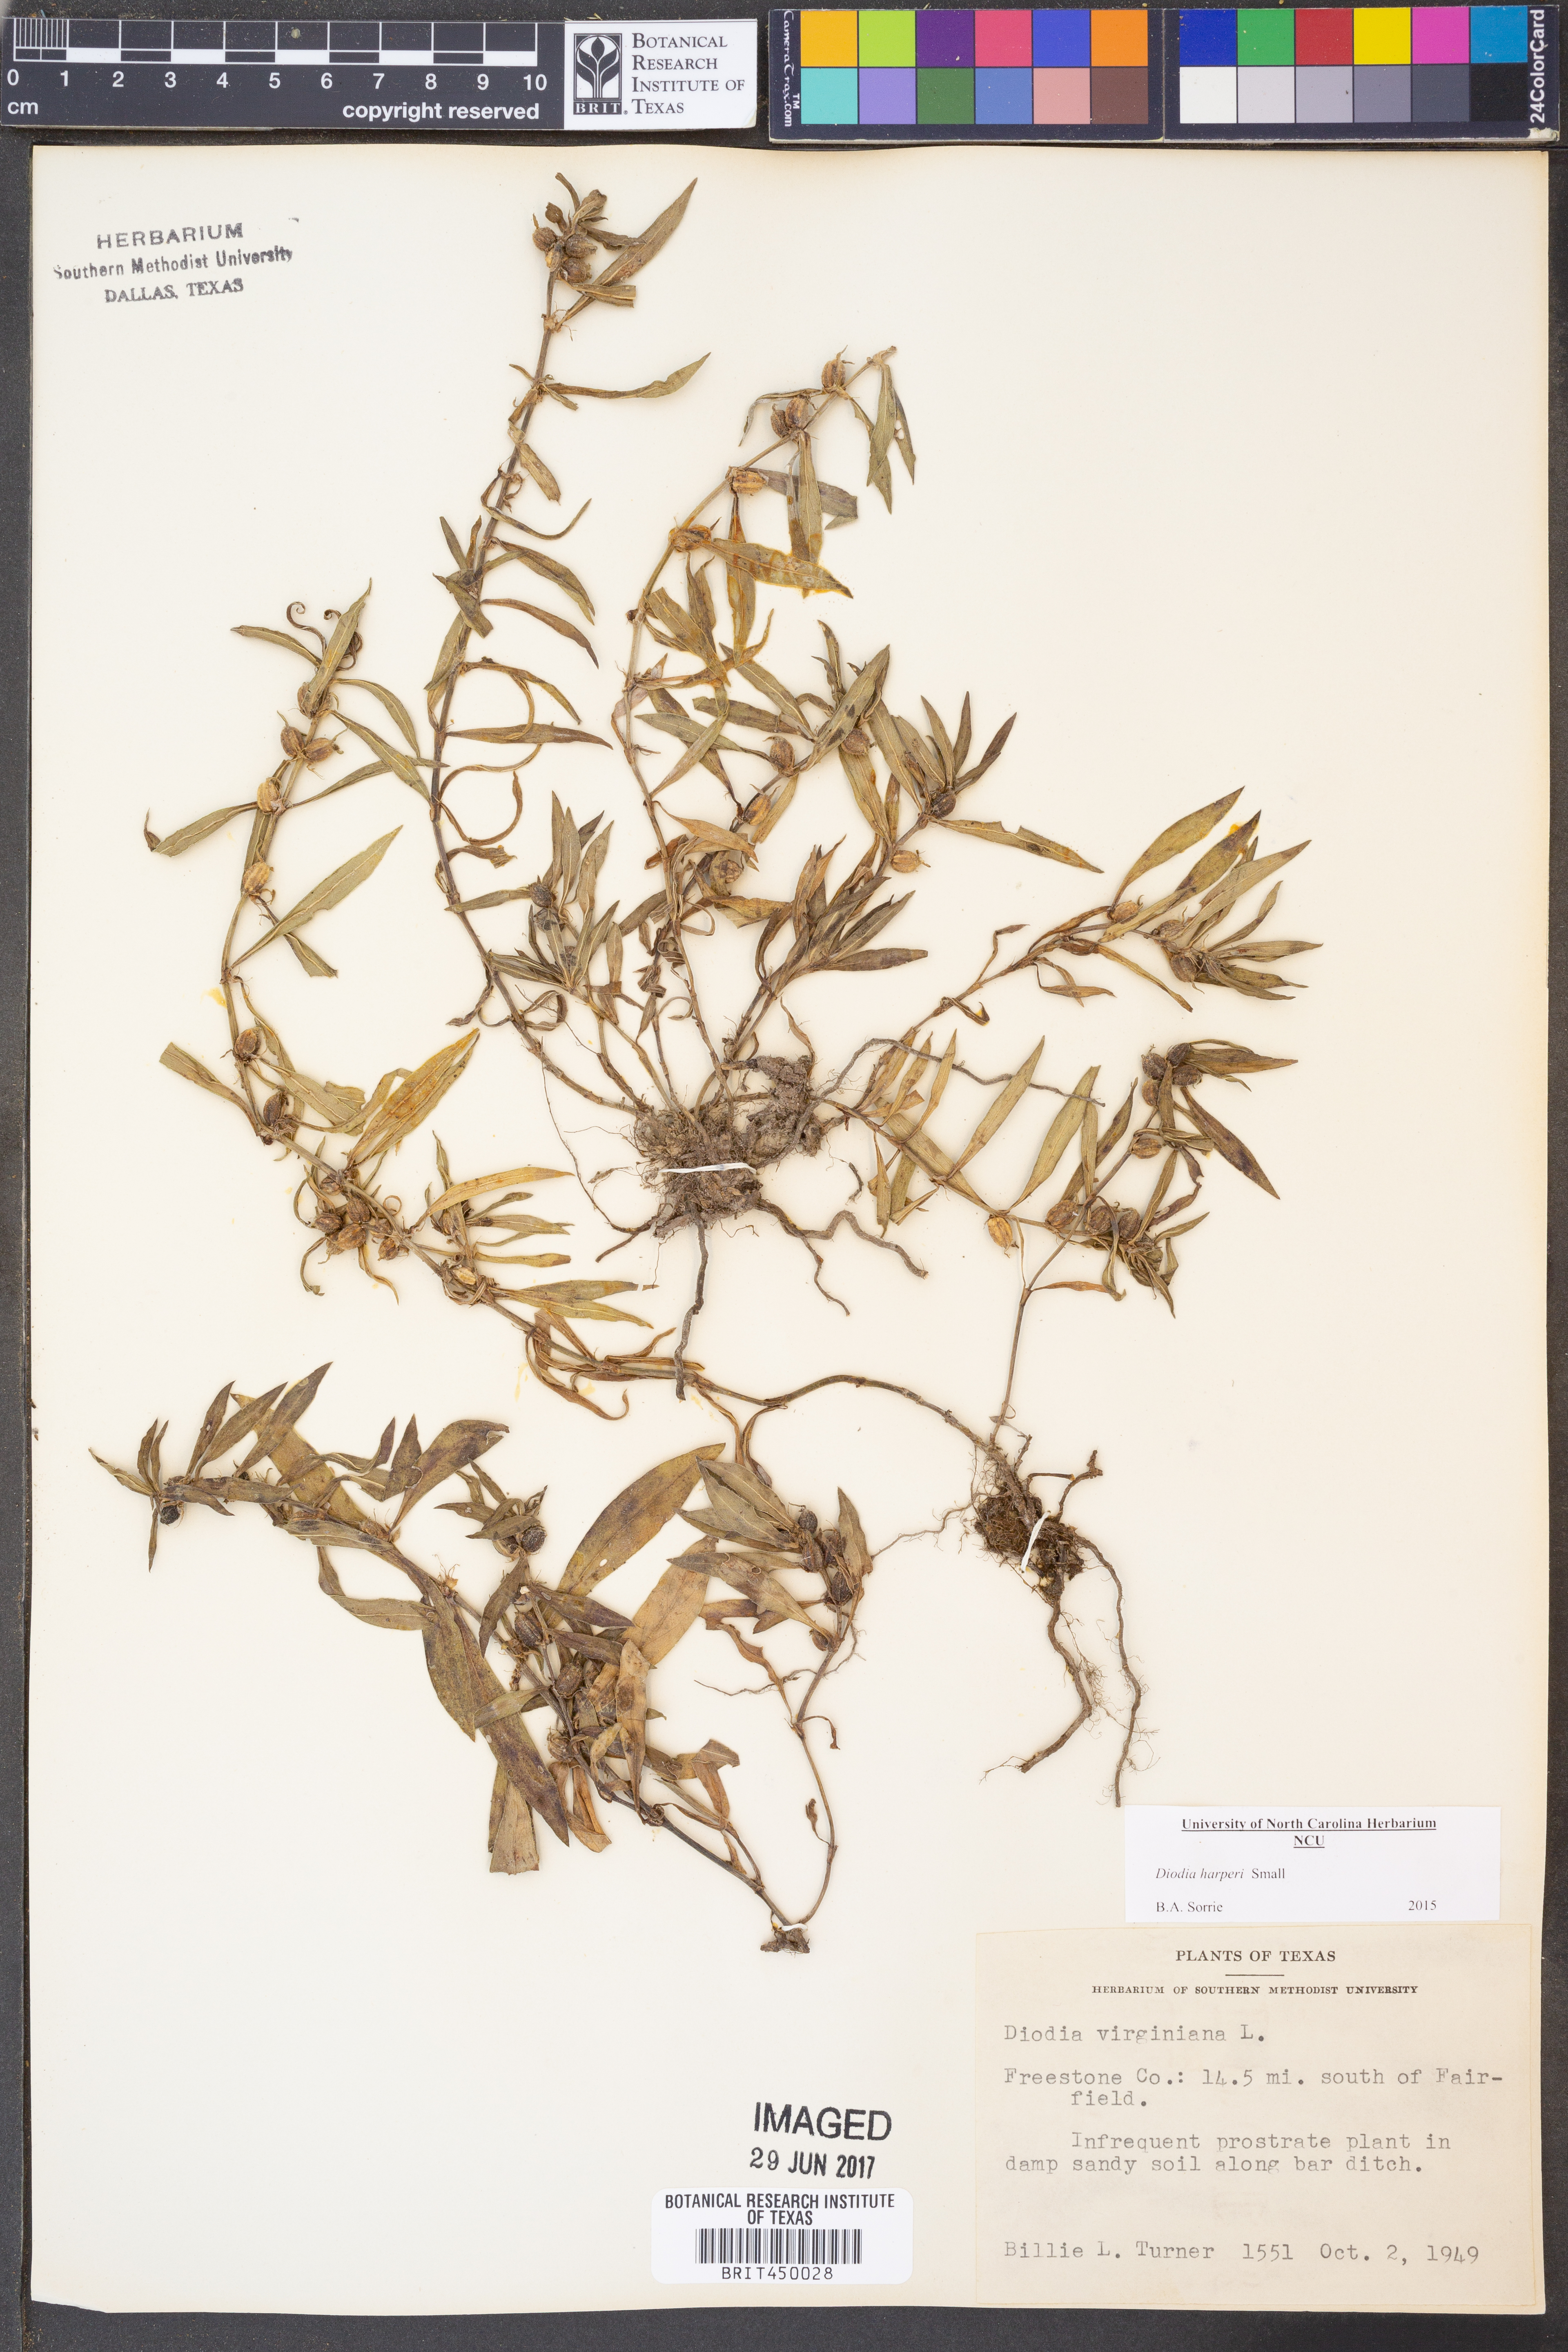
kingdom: Plantae
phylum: Tracheophyta
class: Magnoliopsida
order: Gentianales
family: Rubiaceae
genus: Diodia
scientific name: Diodia virginiana
